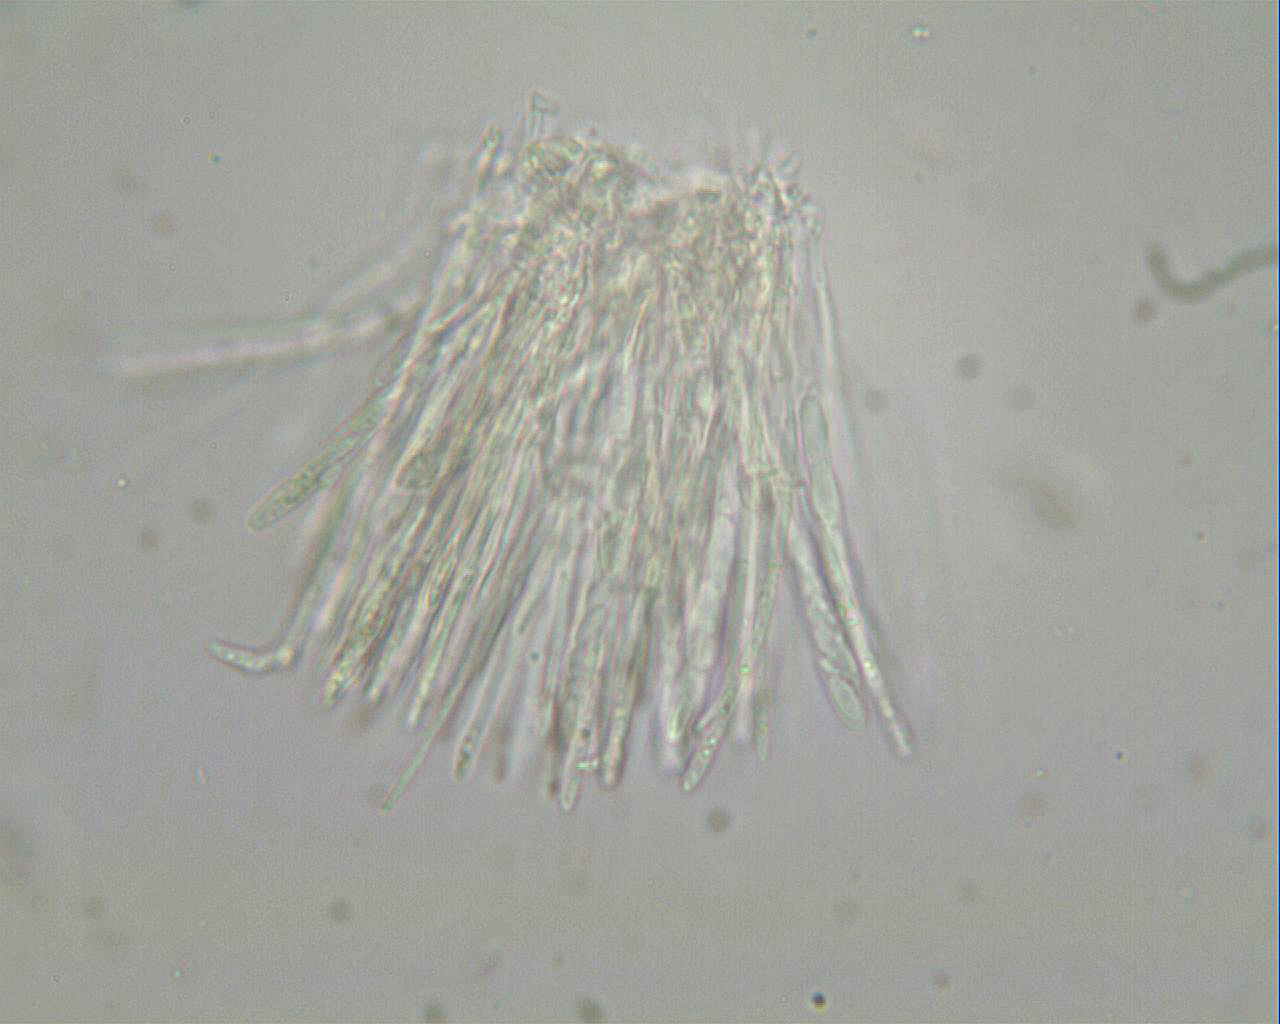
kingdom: Fungi
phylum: Ascomycota
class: Leotiomycetes
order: Helotiales
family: Lachnaceae
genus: Lachnellula
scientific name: Lachnellula subtilissima
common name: gran-frynseskive
